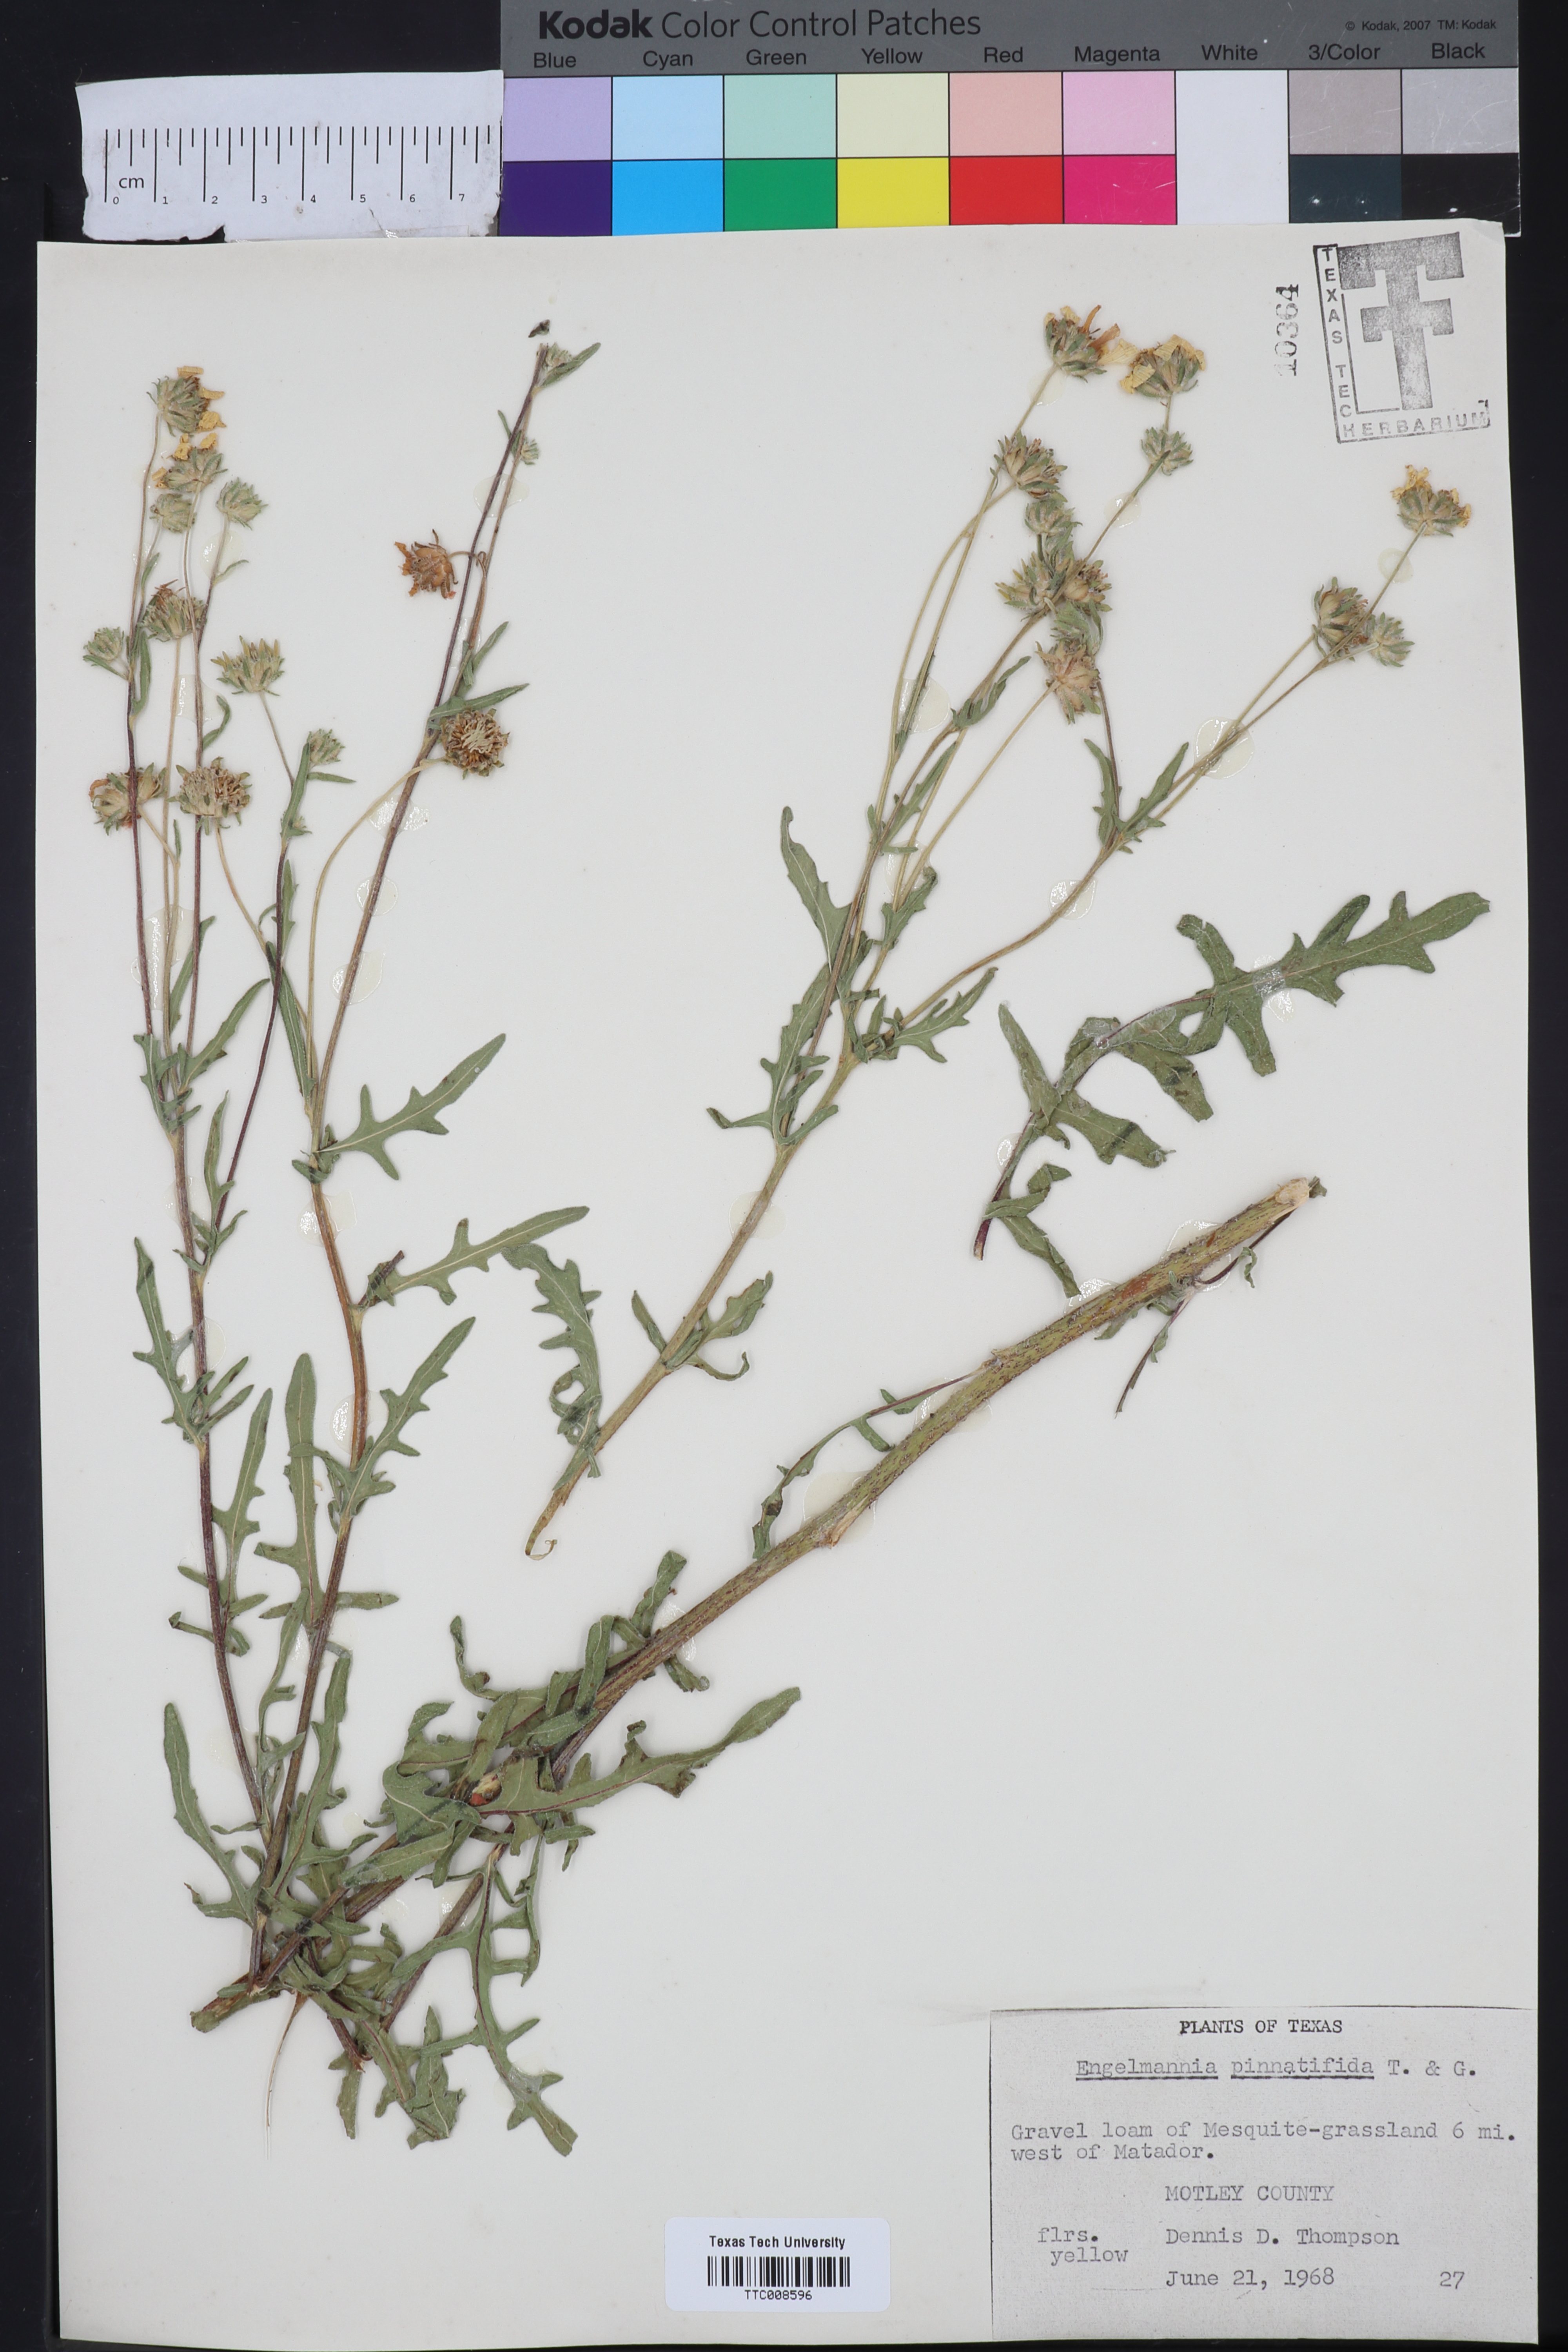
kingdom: Plantae
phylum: Tracheophyta
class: Magnoliopsida
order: Asterales
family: Asteraceae
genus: Engelmannia
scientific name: Engelmannia peristenia
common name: Engelmann's daisy
